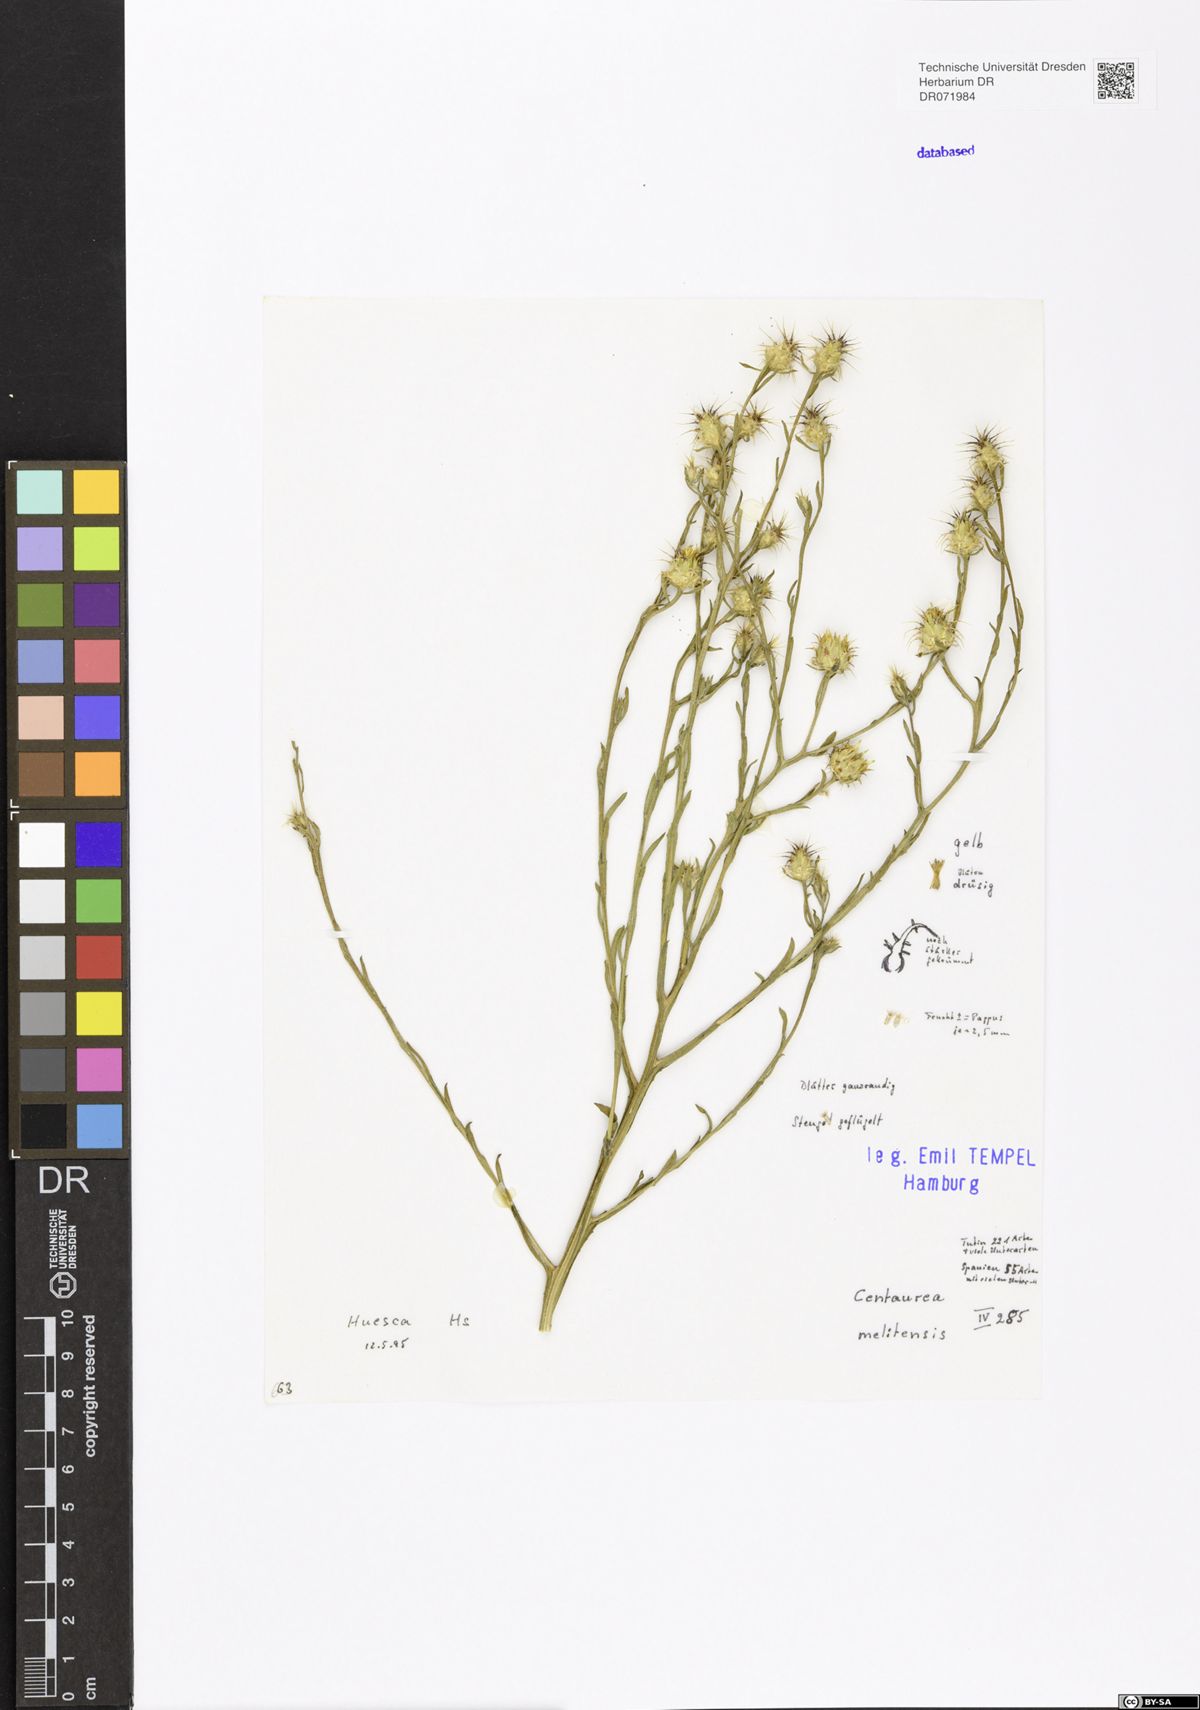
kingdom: Plantae
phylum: Tracheophyta
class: Magnoliopsida
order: Asterales
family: Asteraceae
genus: Centaurea
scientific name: Centaurea melitensis
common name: Maltese star-thistle
